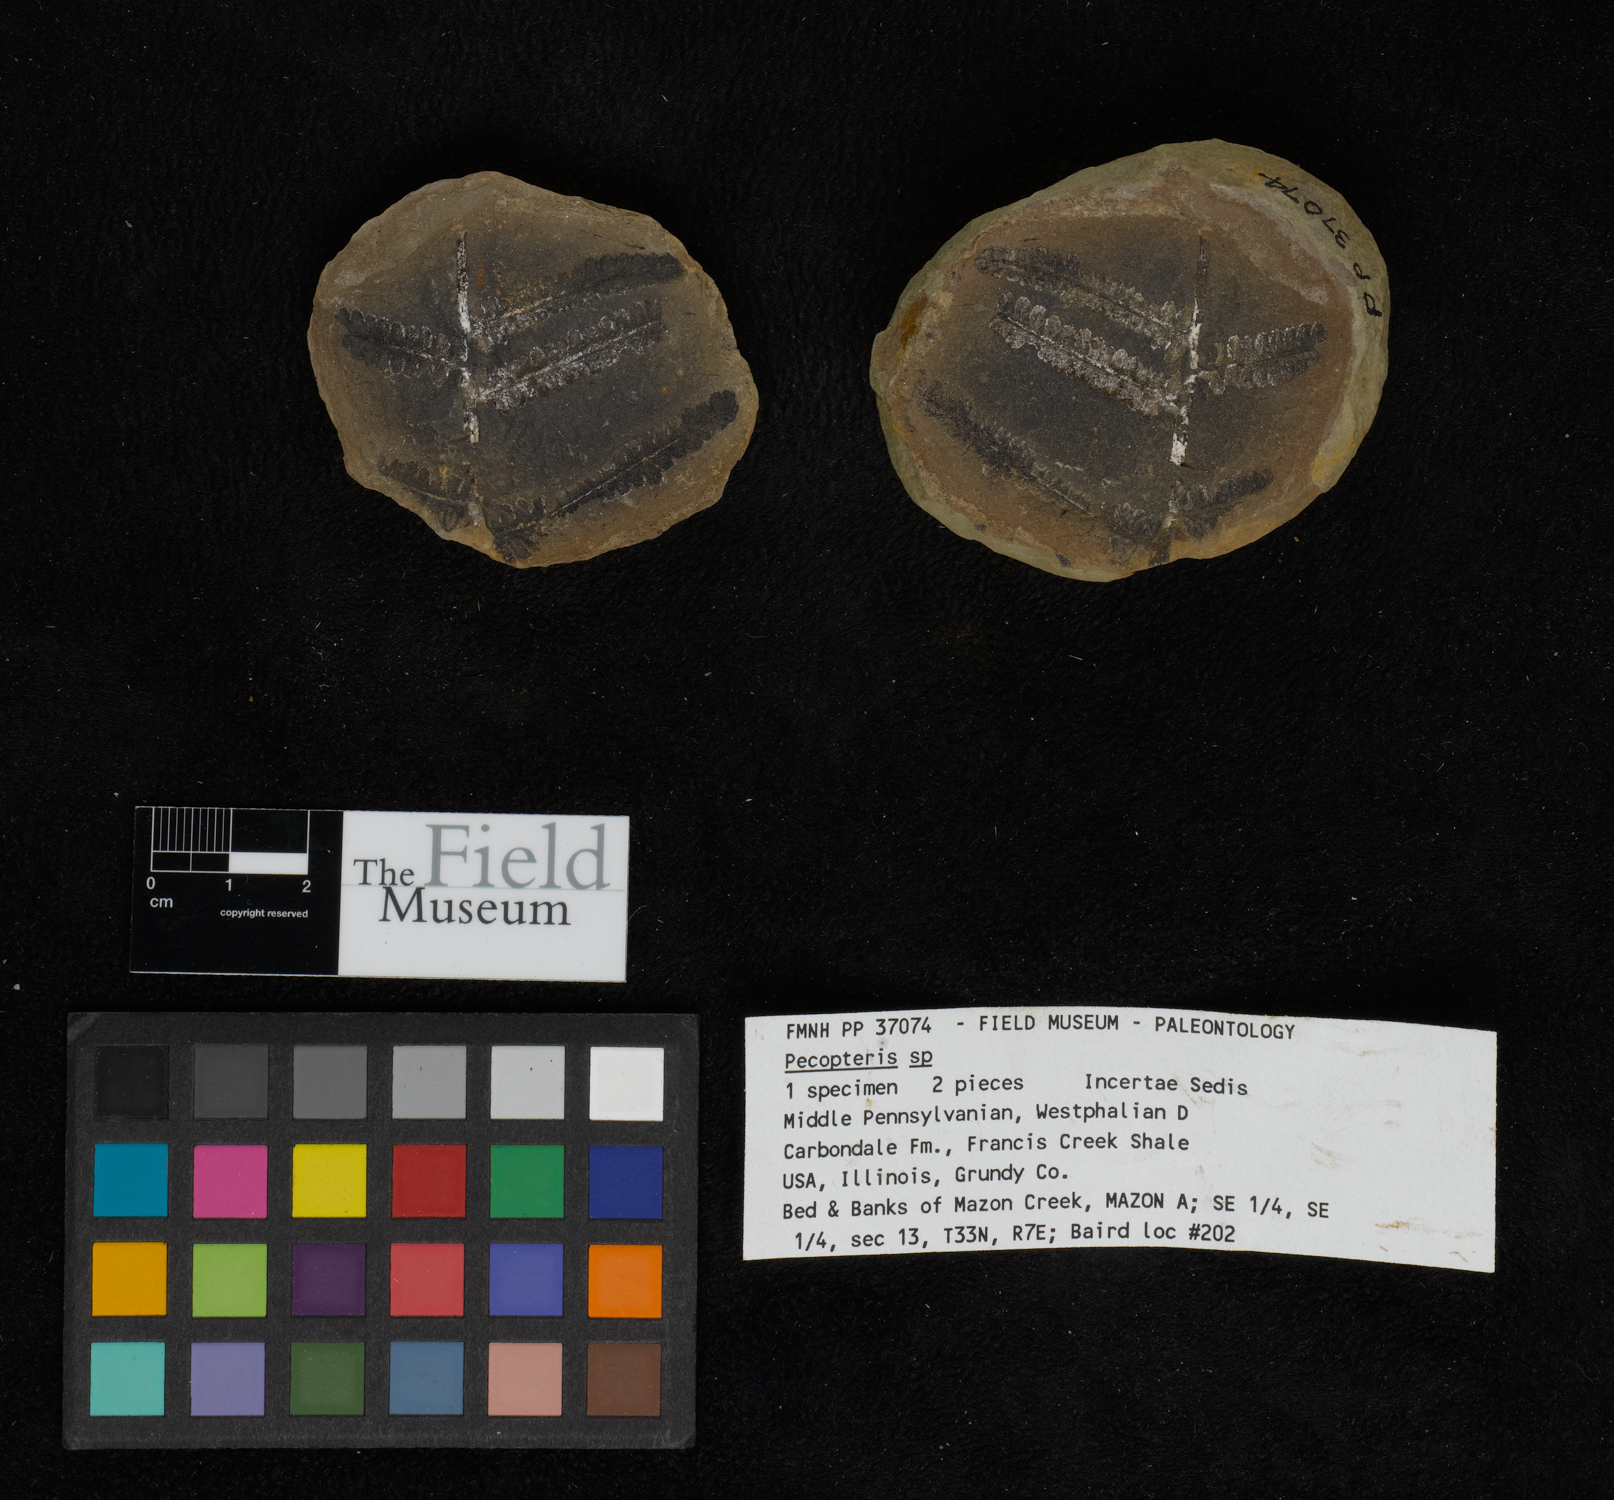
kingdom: Plantae
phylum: Tracheophyta
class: Polypodiopsida
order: Marattiales
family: Asterothecaceae
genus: Pecopteris
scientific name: Pecopteris
